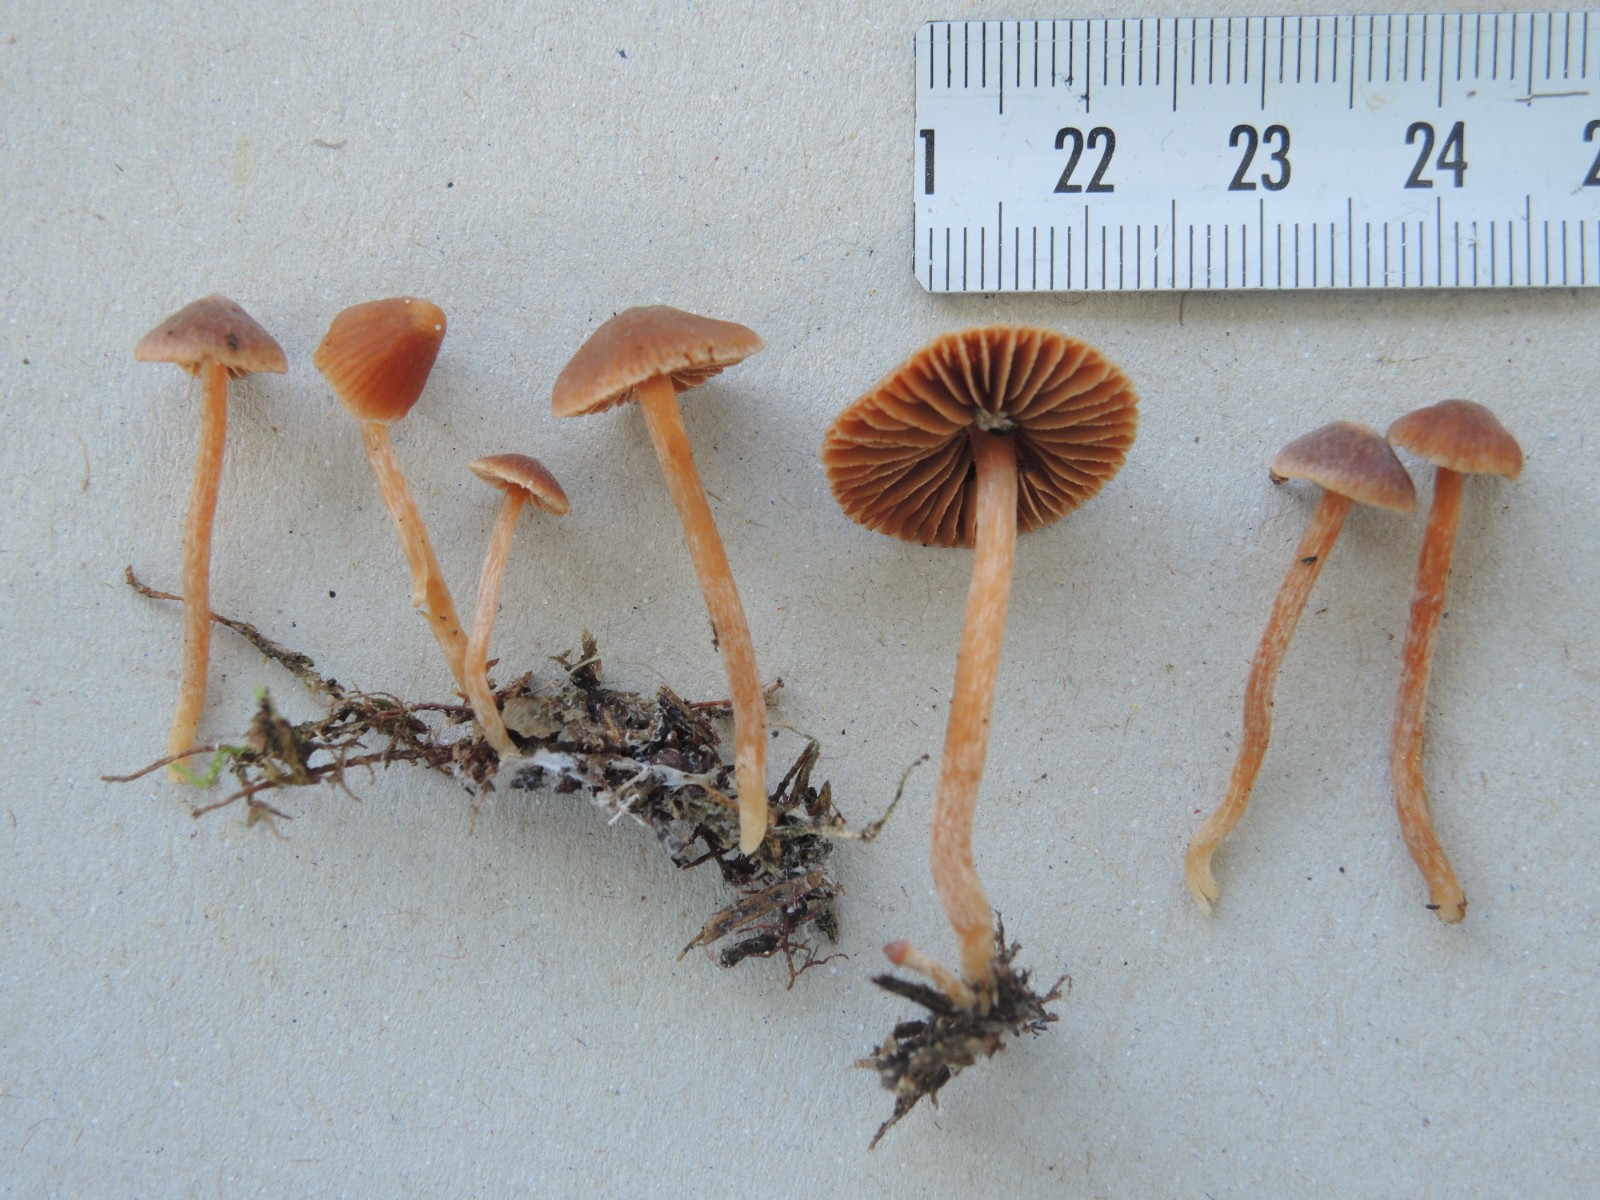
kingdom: Fungi
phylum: Basidiomycota
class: Agaricomycetes
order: Agaricales
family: Cortinariaceae
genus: Cortinarius
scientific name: Cortinarius pseudoacutus
